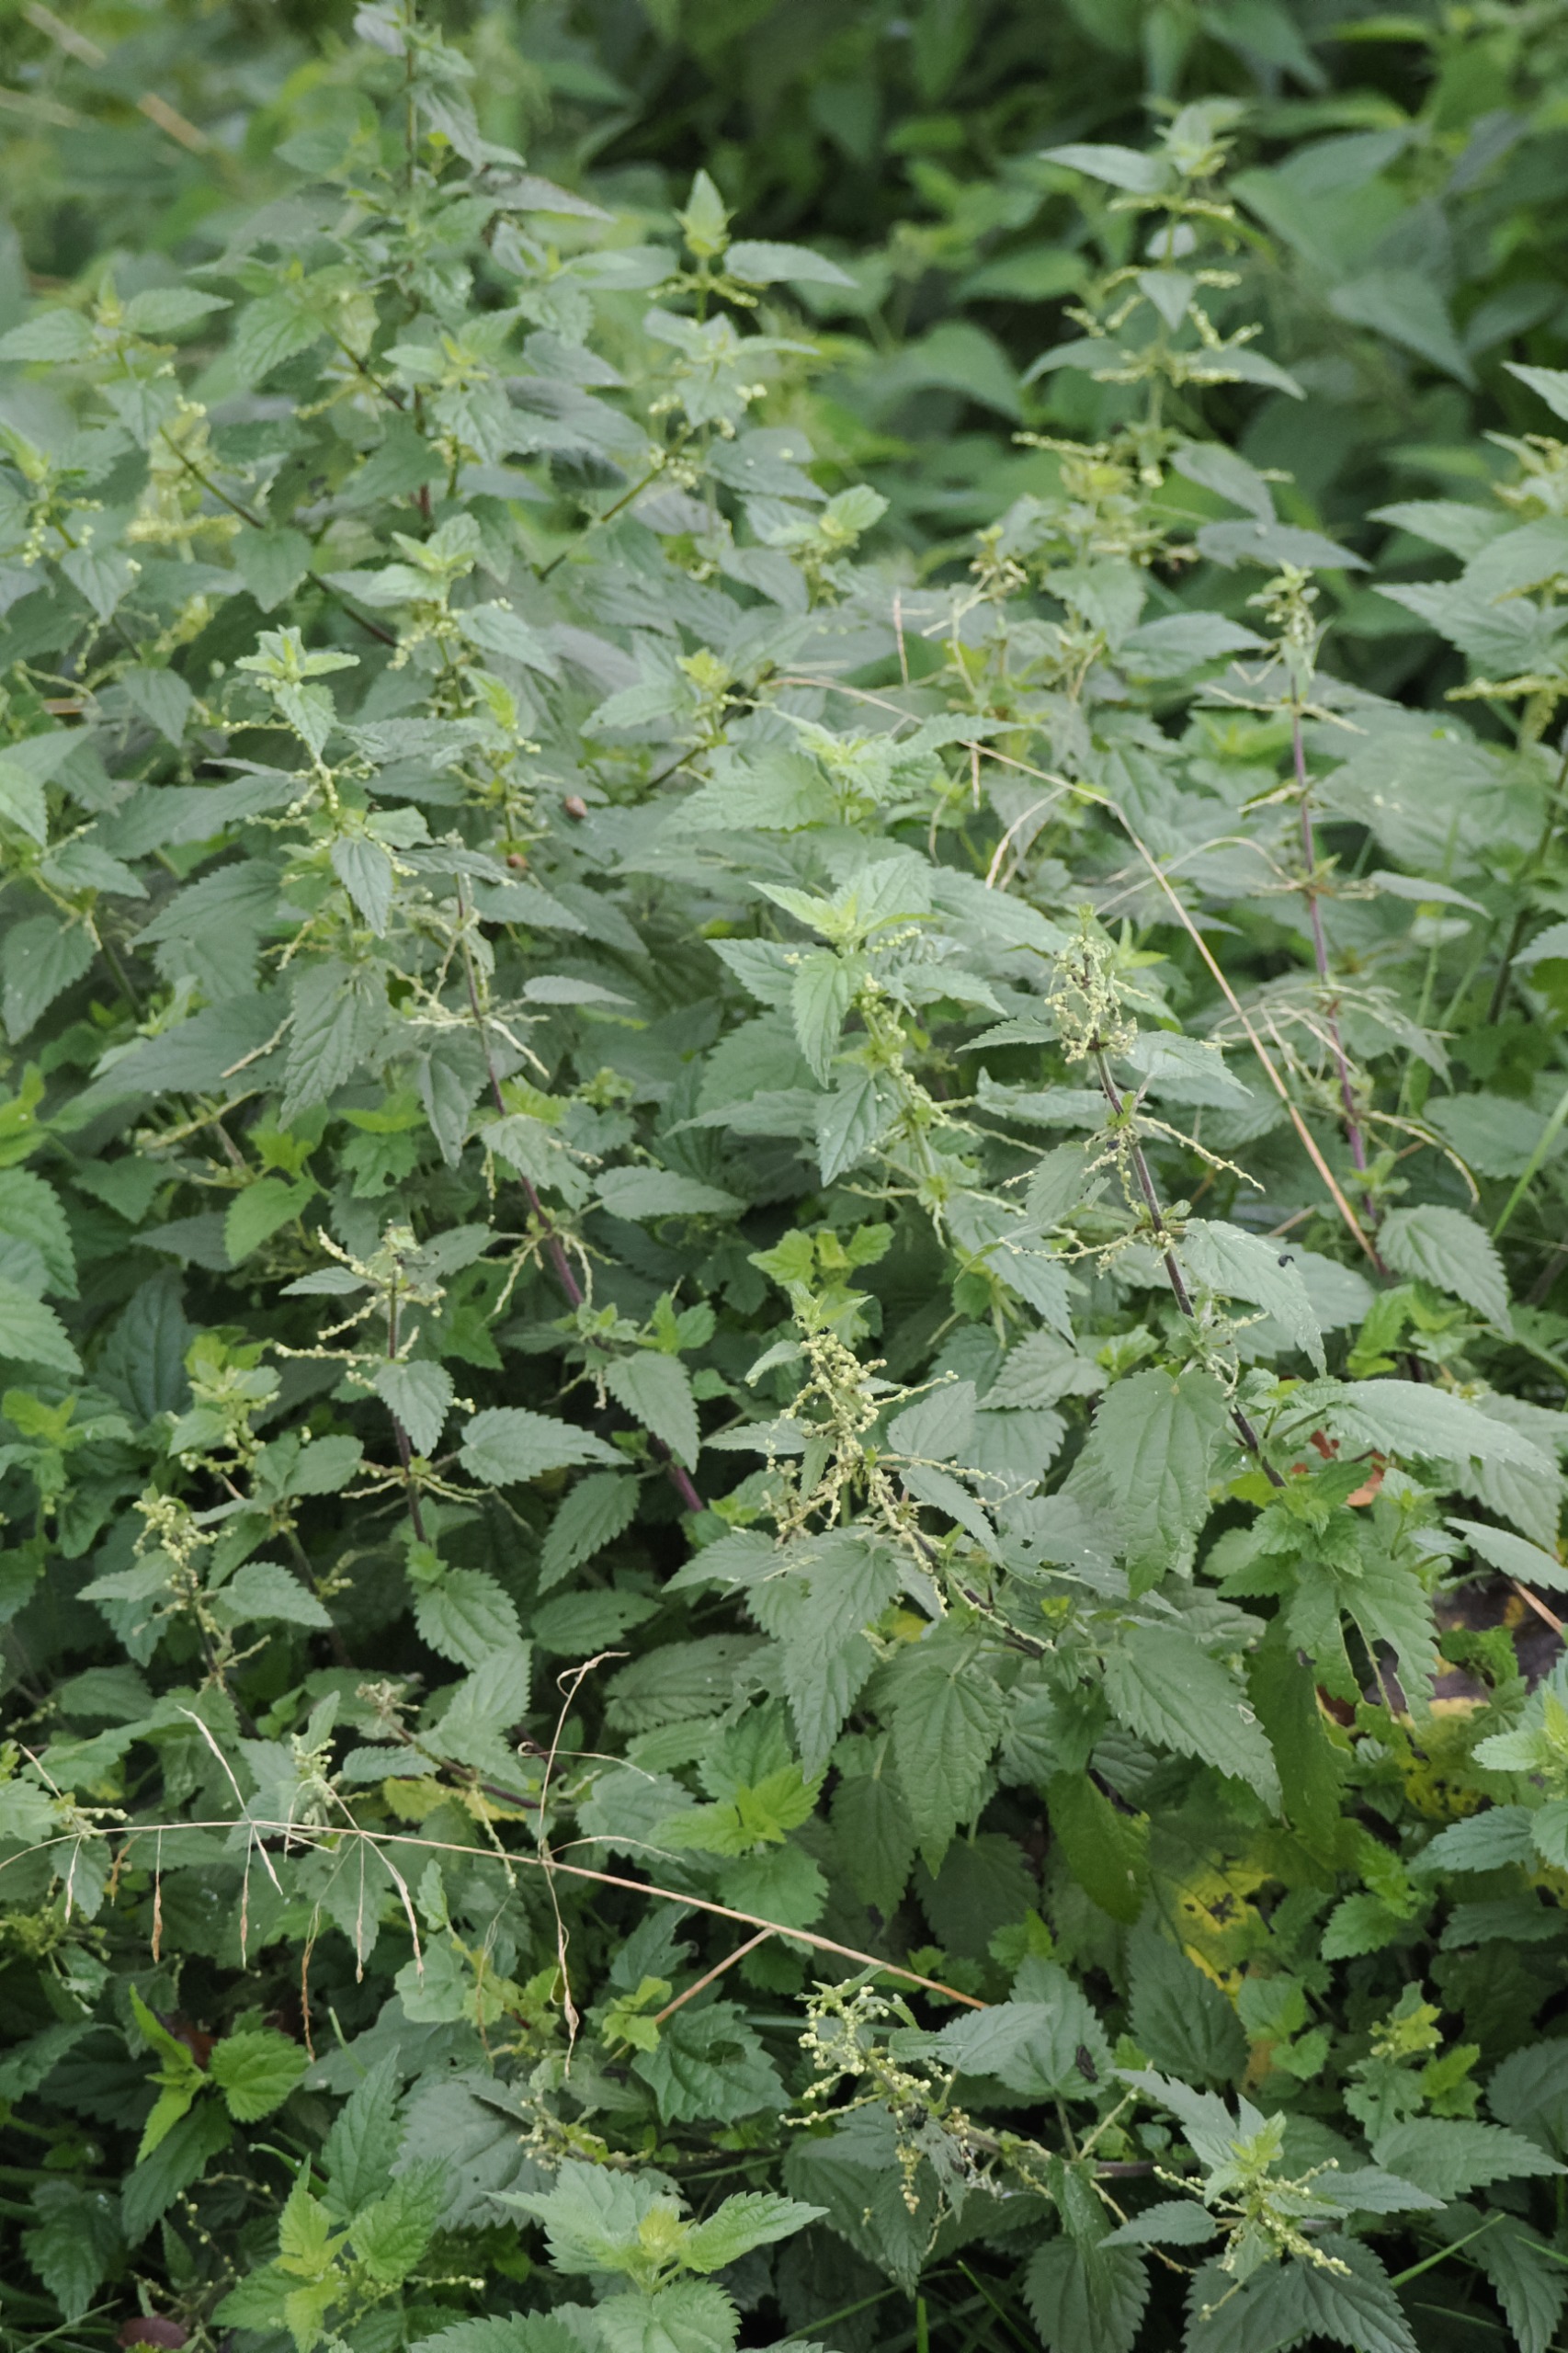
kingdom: Plantae
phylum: Tracheophyta
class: Magnoliopsida
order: Rosales
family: Urticaceae
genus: Urtica
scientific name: Urtica dioica
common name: Stor nælde
